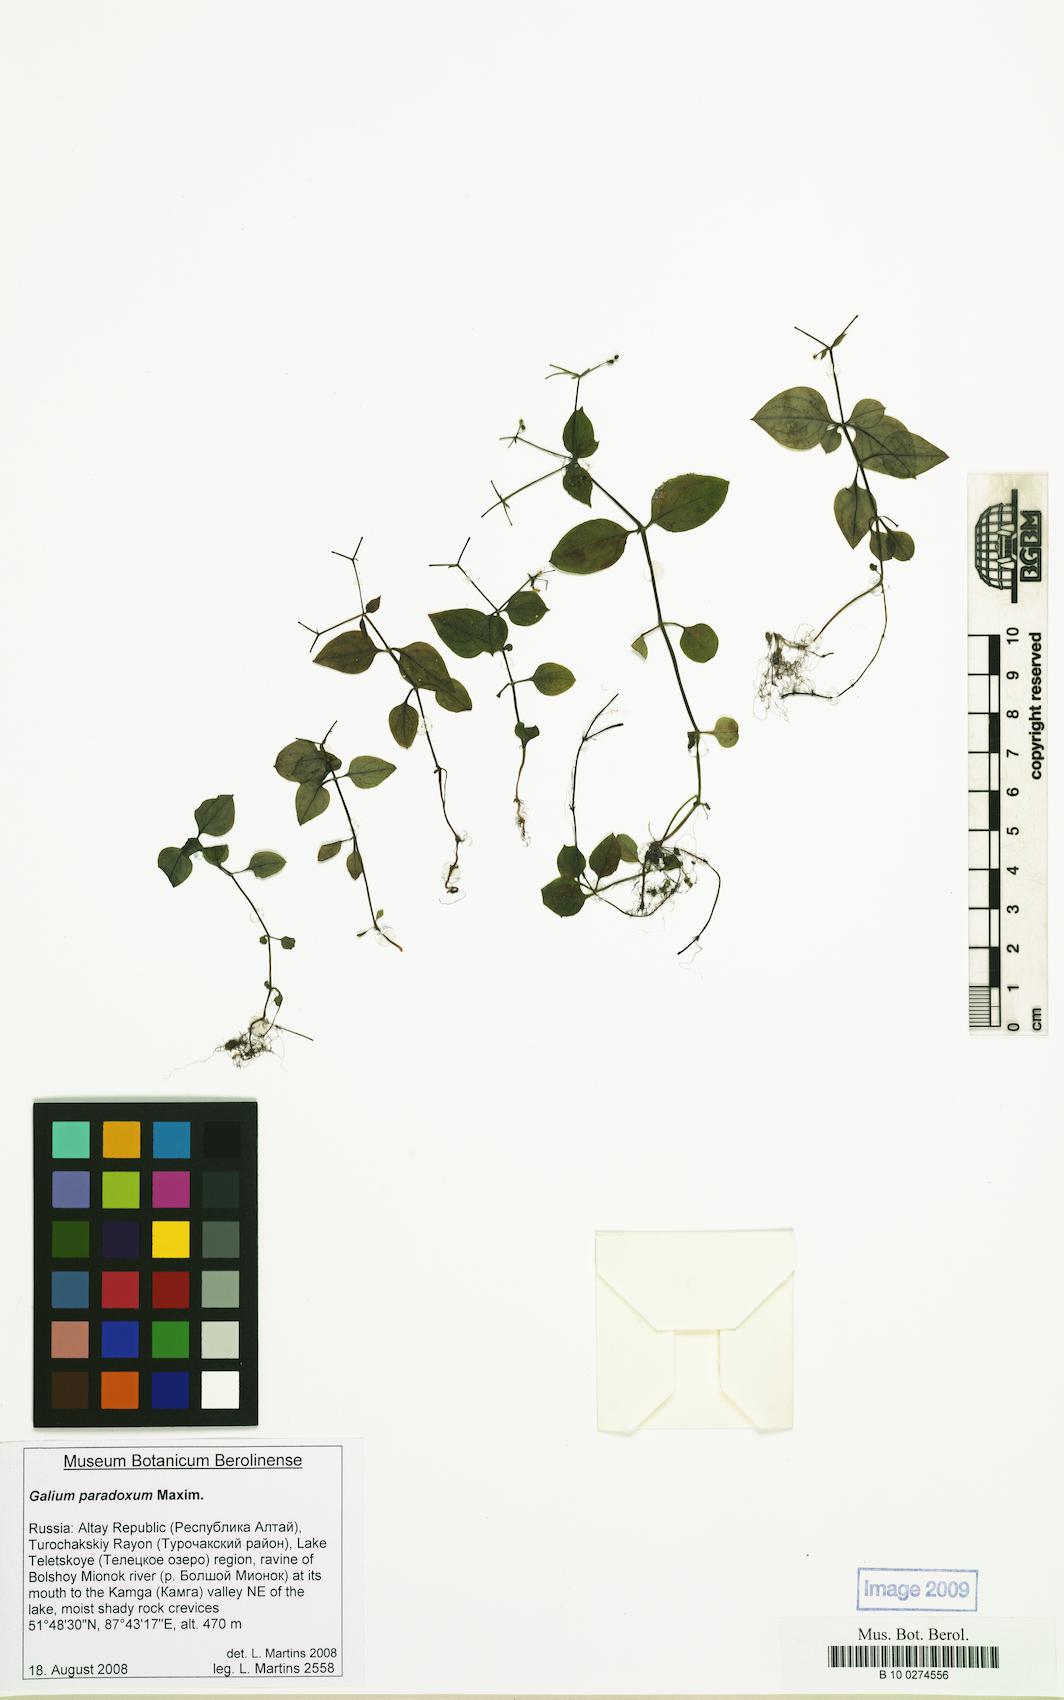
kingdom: Plantae
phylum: Tracheophyta
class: Magnoliopsida
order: Gentianales
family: Rubiaceae
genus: Pseudogalium
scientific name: Pseudogalium paradoxum
